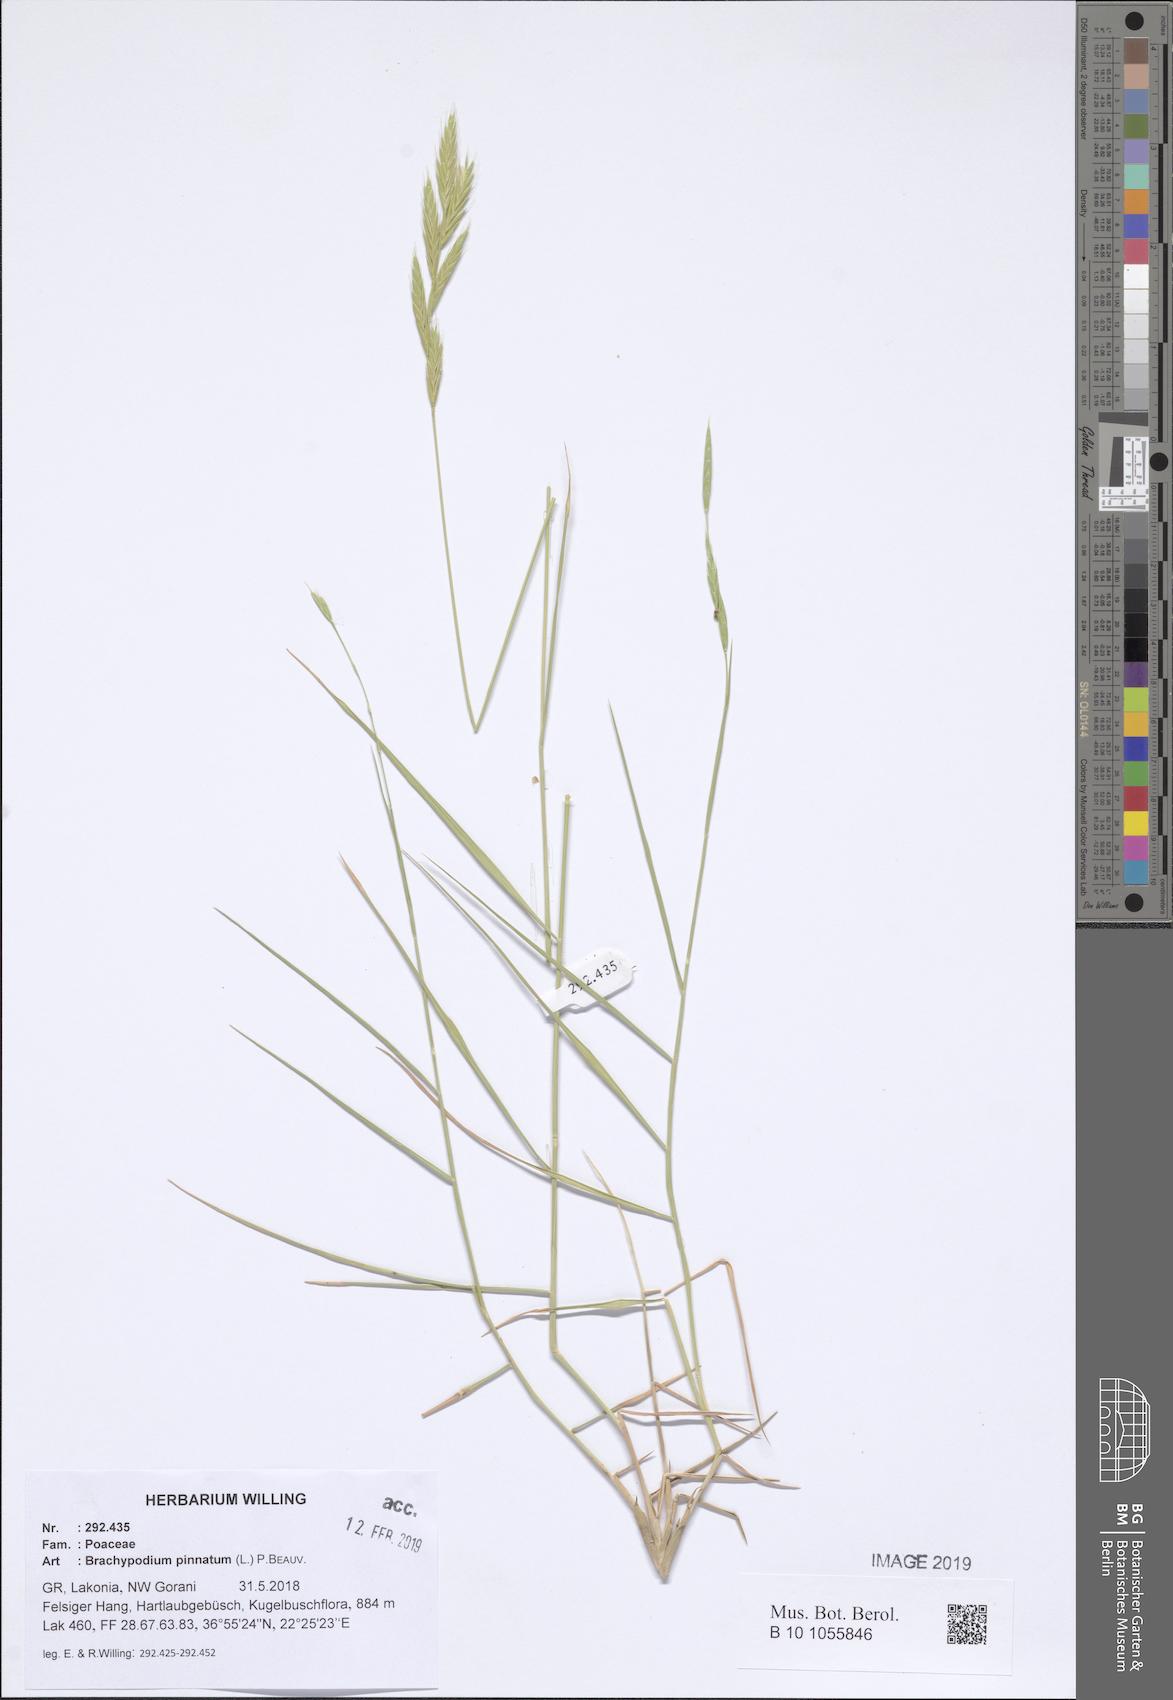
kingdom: Plantae
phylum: Tracheophyta
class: Liliopsida
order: Poales
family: Poaceae
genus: Brachypodium
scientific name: Brachypodium pinnatum
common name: Tor grass
